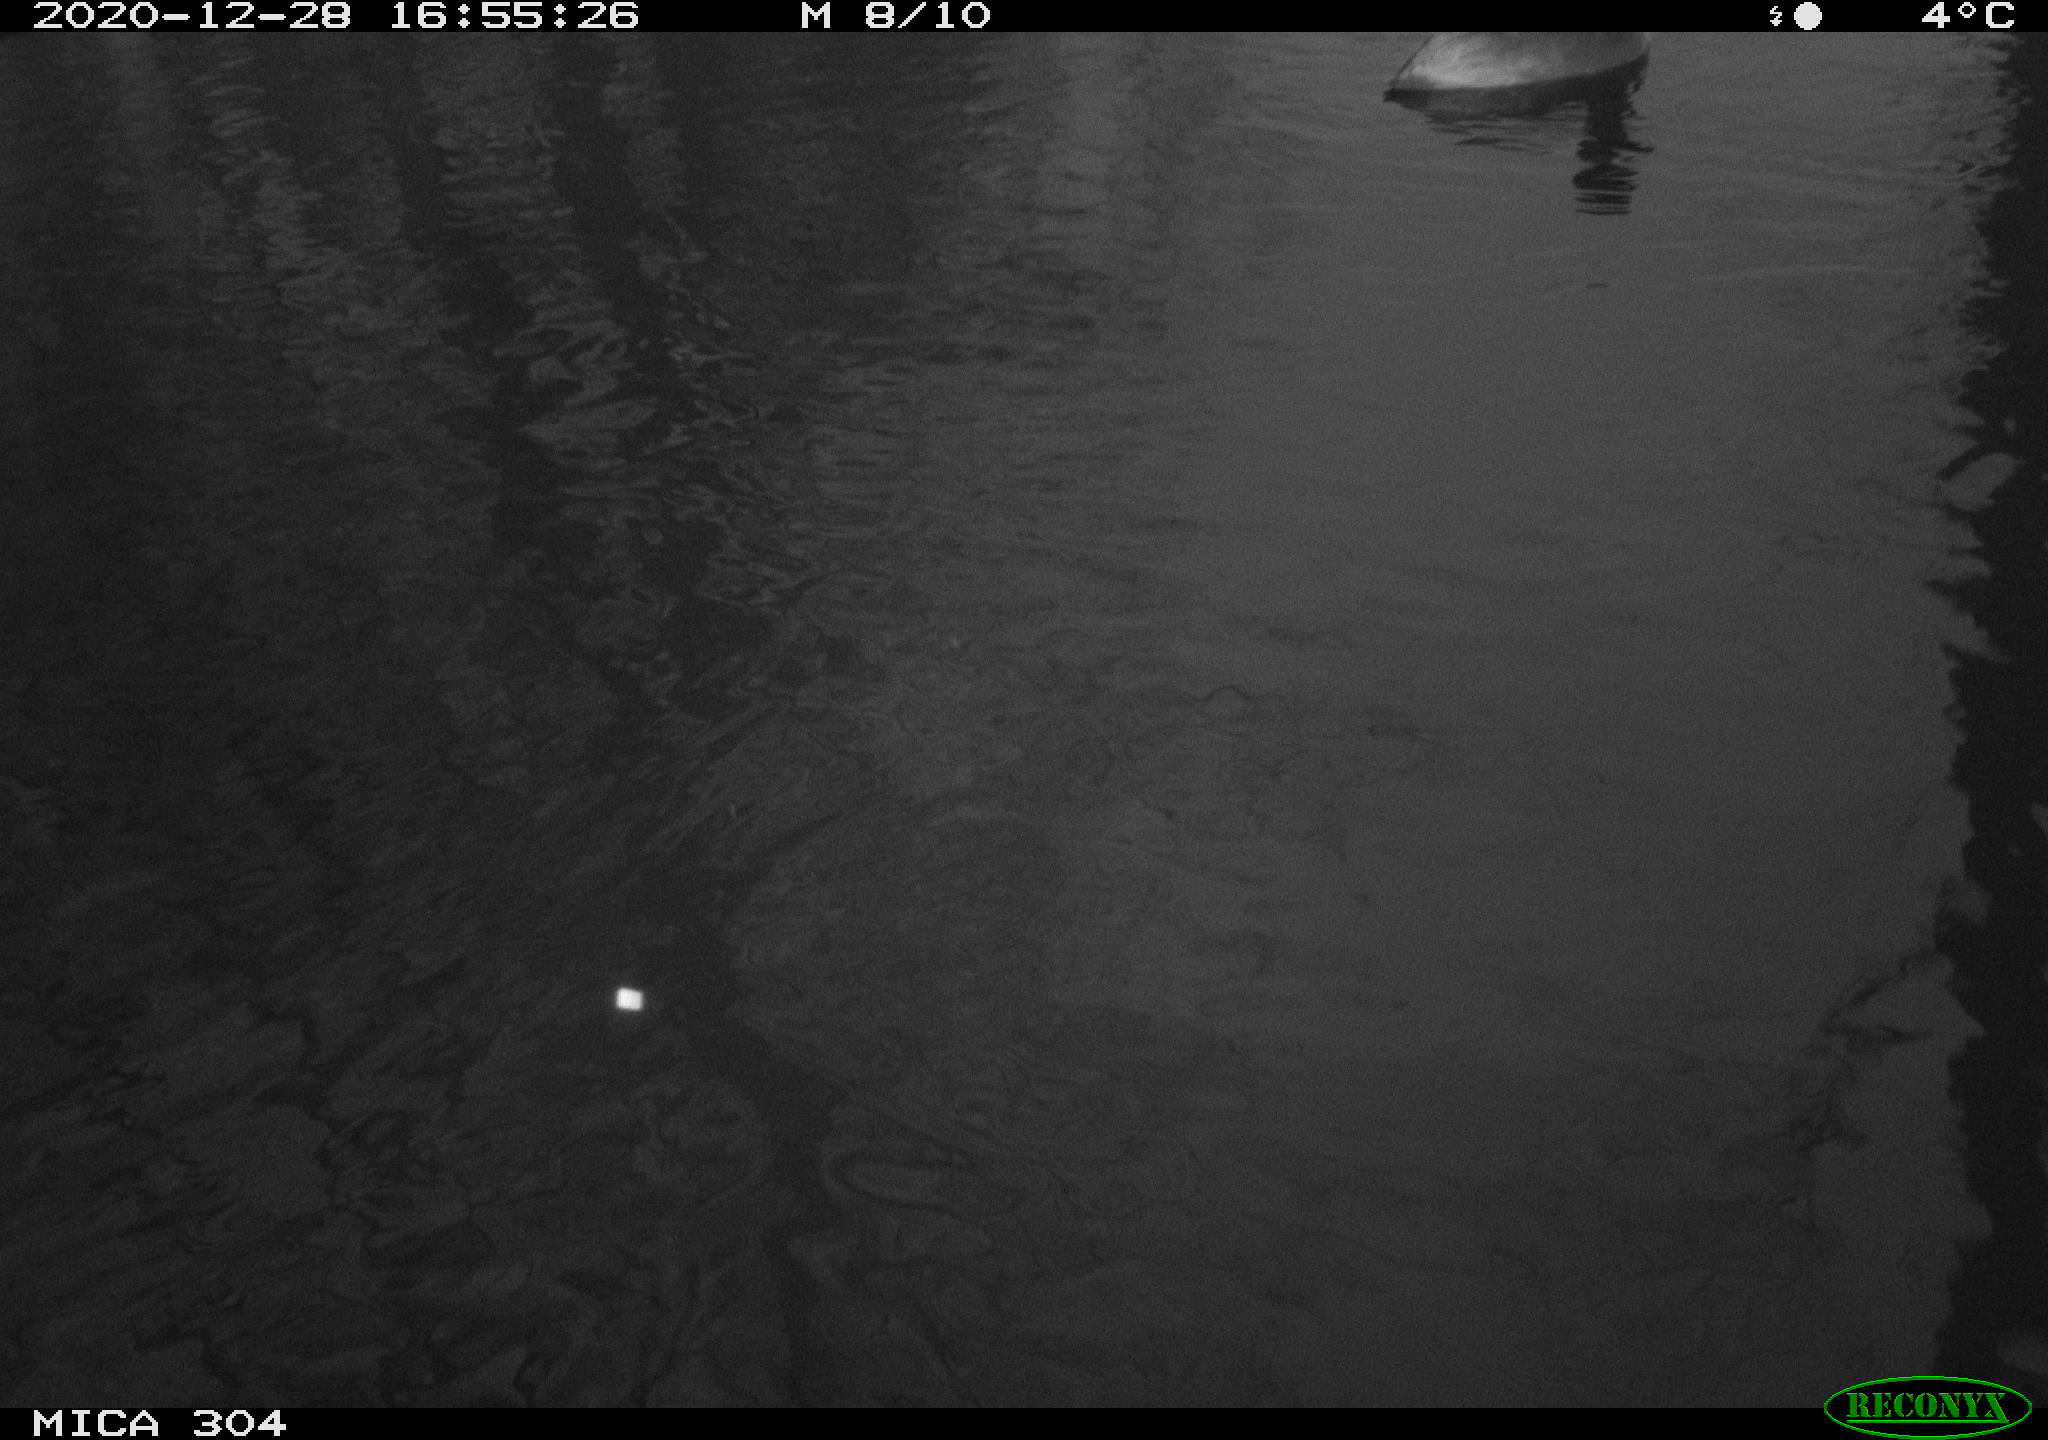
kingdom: Animalia
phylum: Chordata
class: Aves
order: Gruiformes
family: Rallidae
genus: Fulica
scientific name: Fulica atra
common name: Eurasian coot
